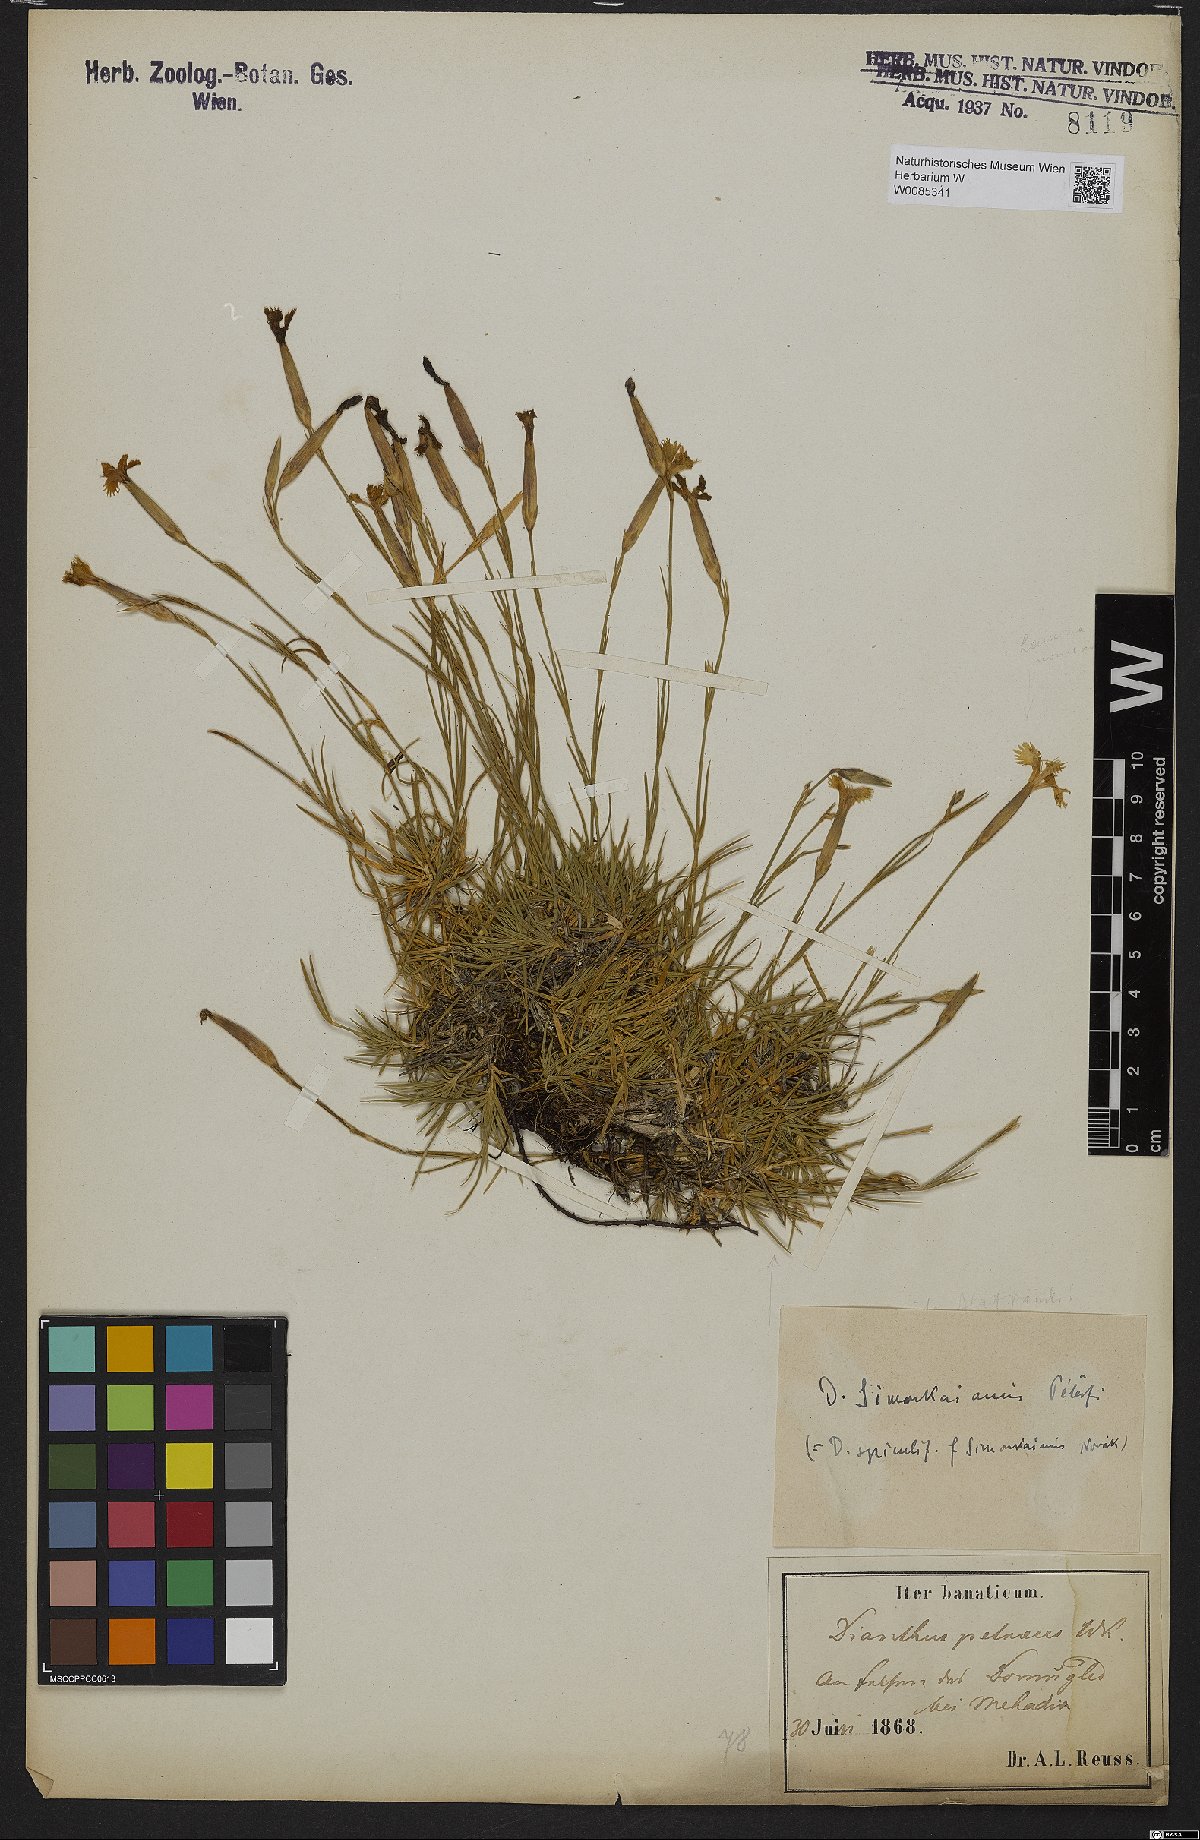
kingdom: Plantae
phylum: Tracheophyta
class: Magnoliopsida
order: Caryophyllales
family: Caryophyllaceae
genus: Dianthus
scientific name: Dianthus petraeus
